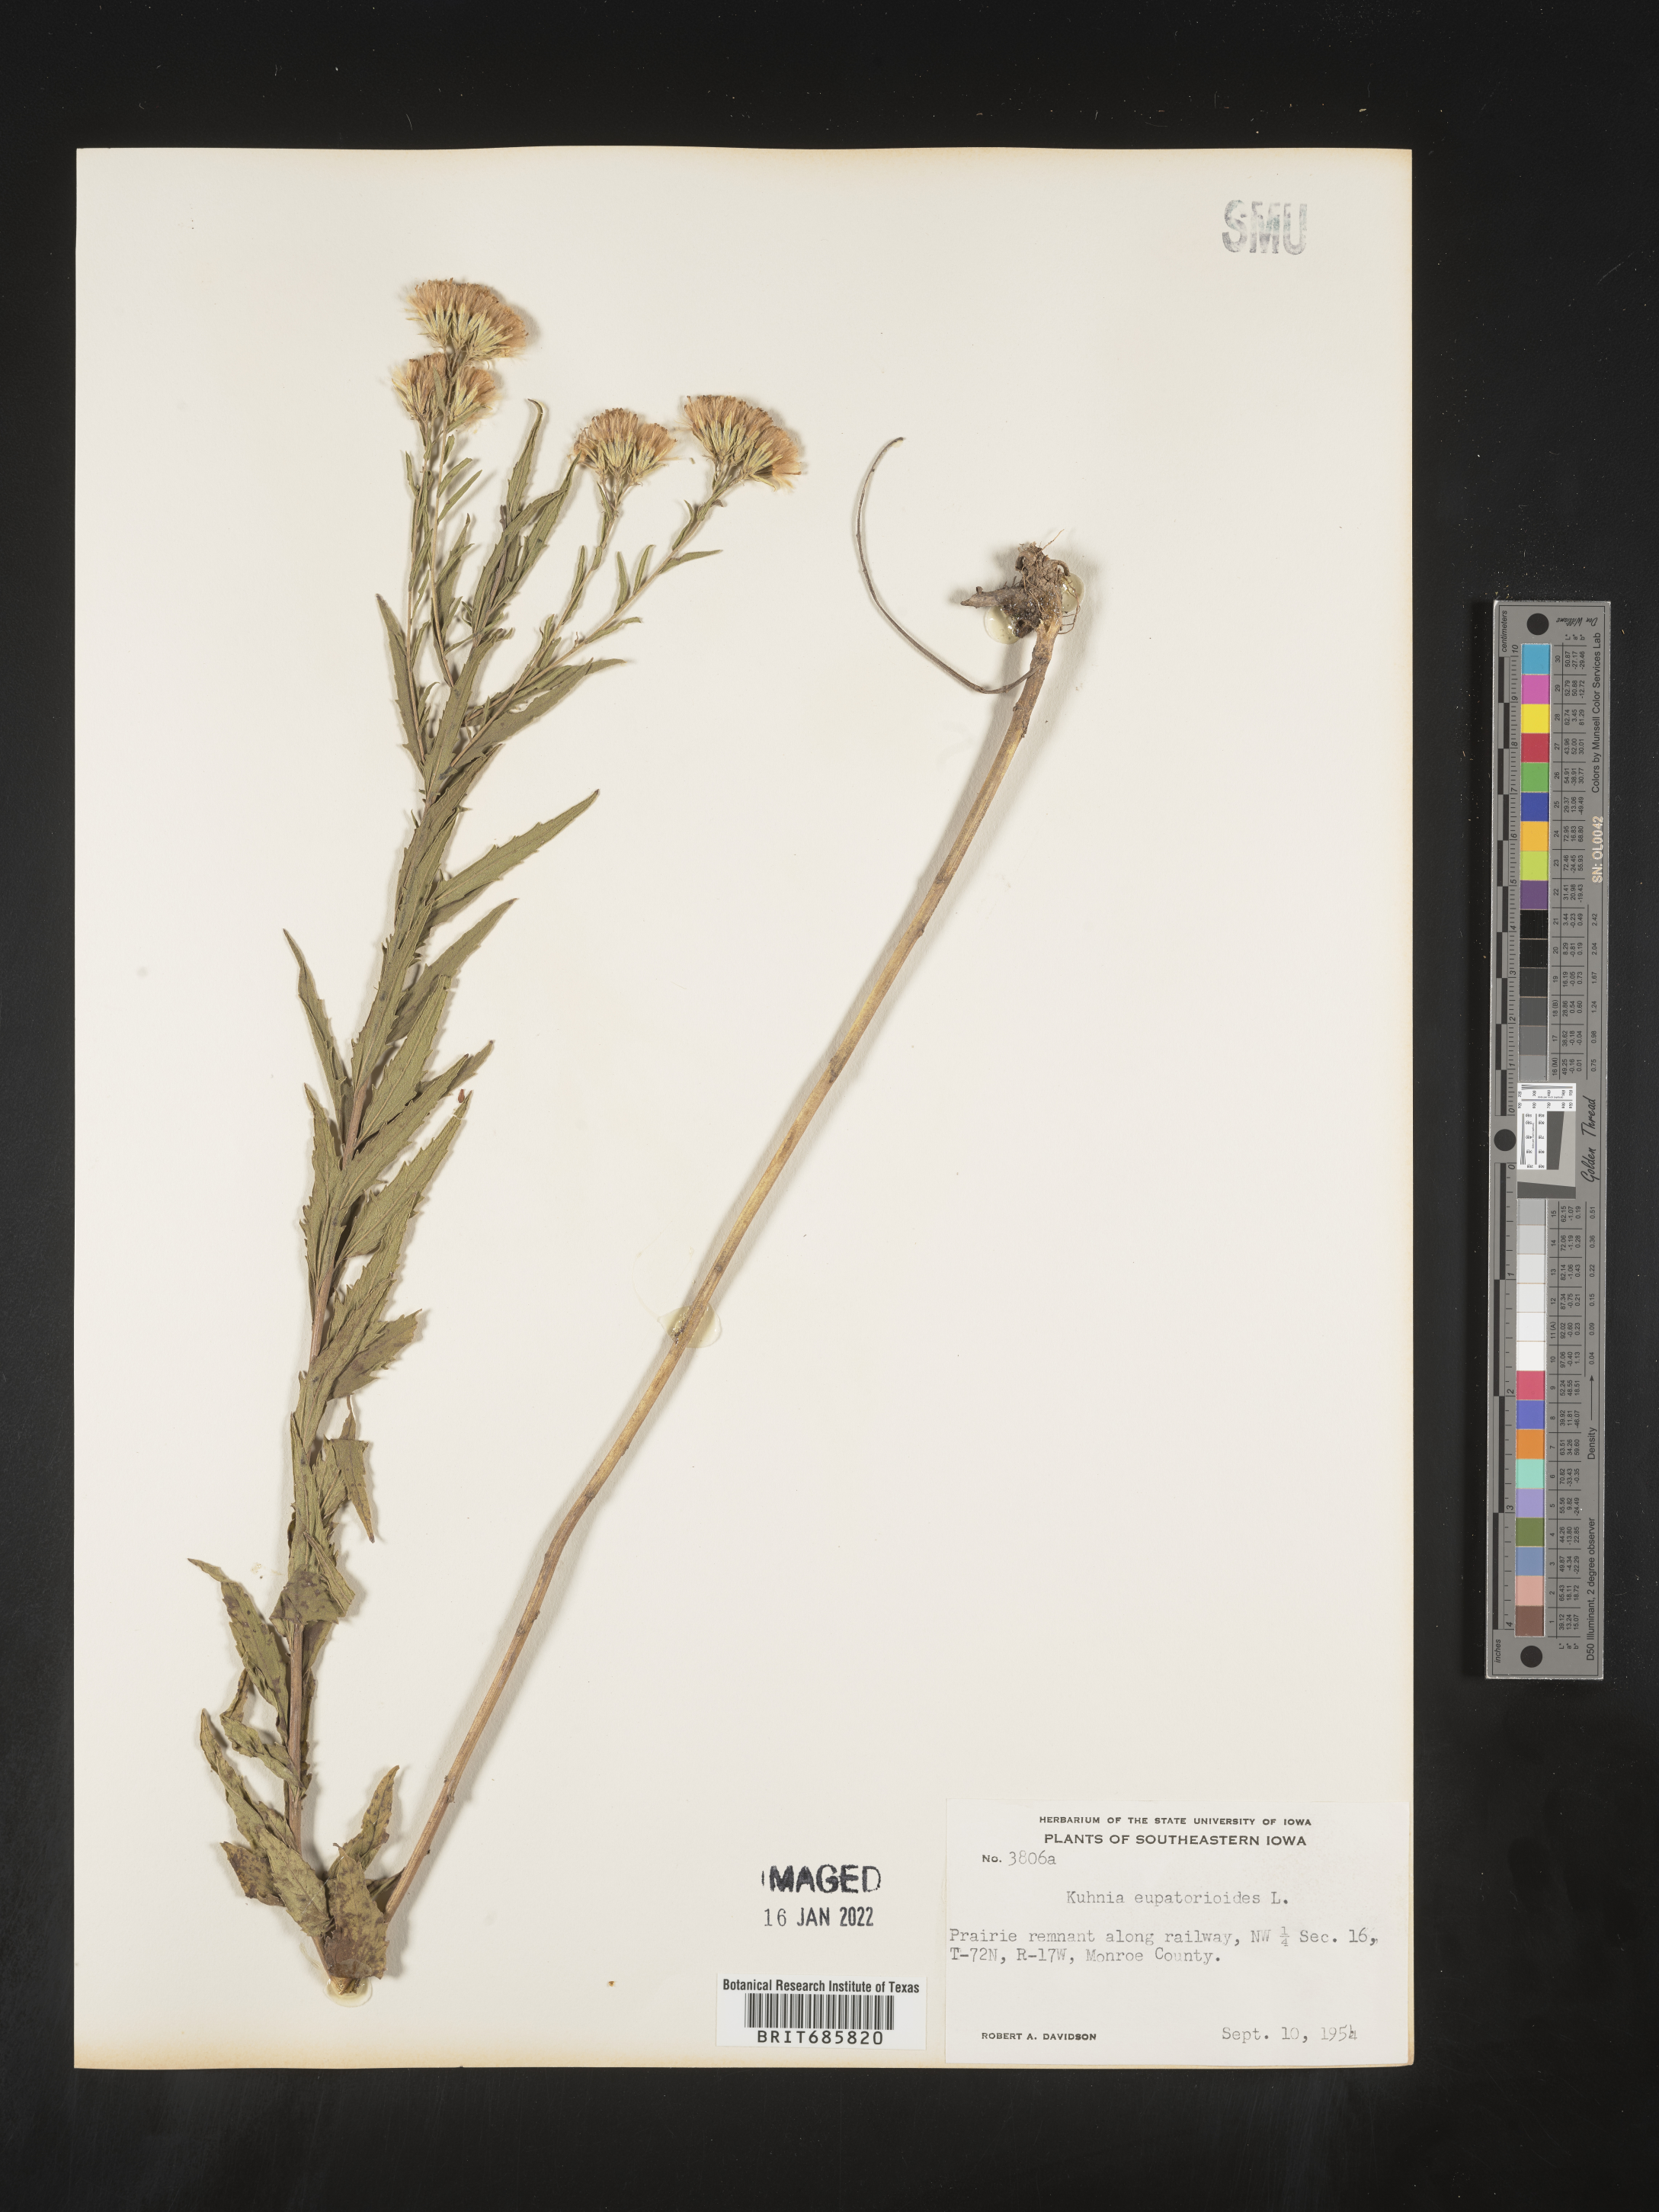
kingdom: Plantae
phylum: Tracheophyta
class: Magnoliopsida
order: Asterales
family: Asteraceae
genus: Brickellia
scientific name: Brickellia eupatorioides
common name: False boneset
